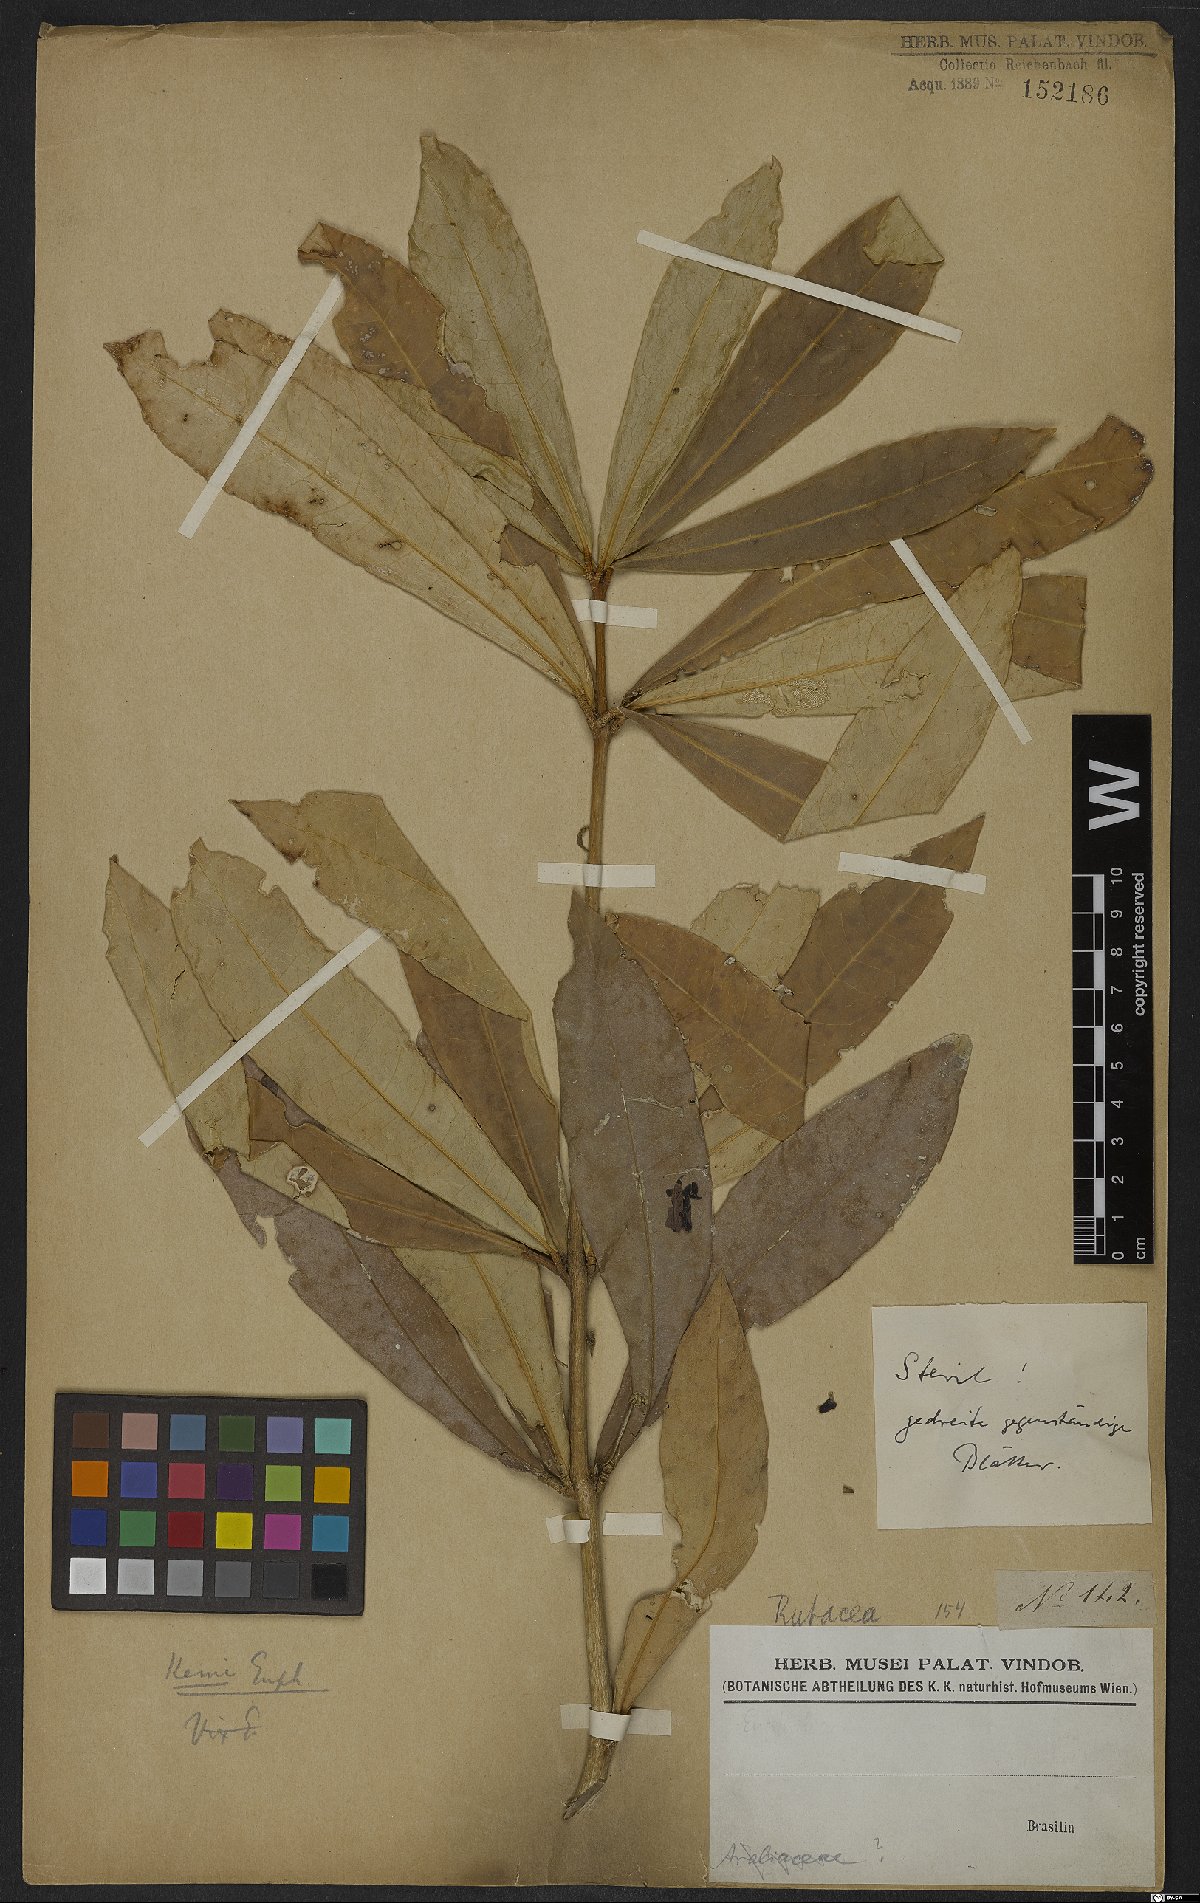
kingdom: Plantae
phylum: Tracheophyta
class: Magnoliopsida
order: Sapindales
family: Rutaceae
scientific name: Rutaceae
